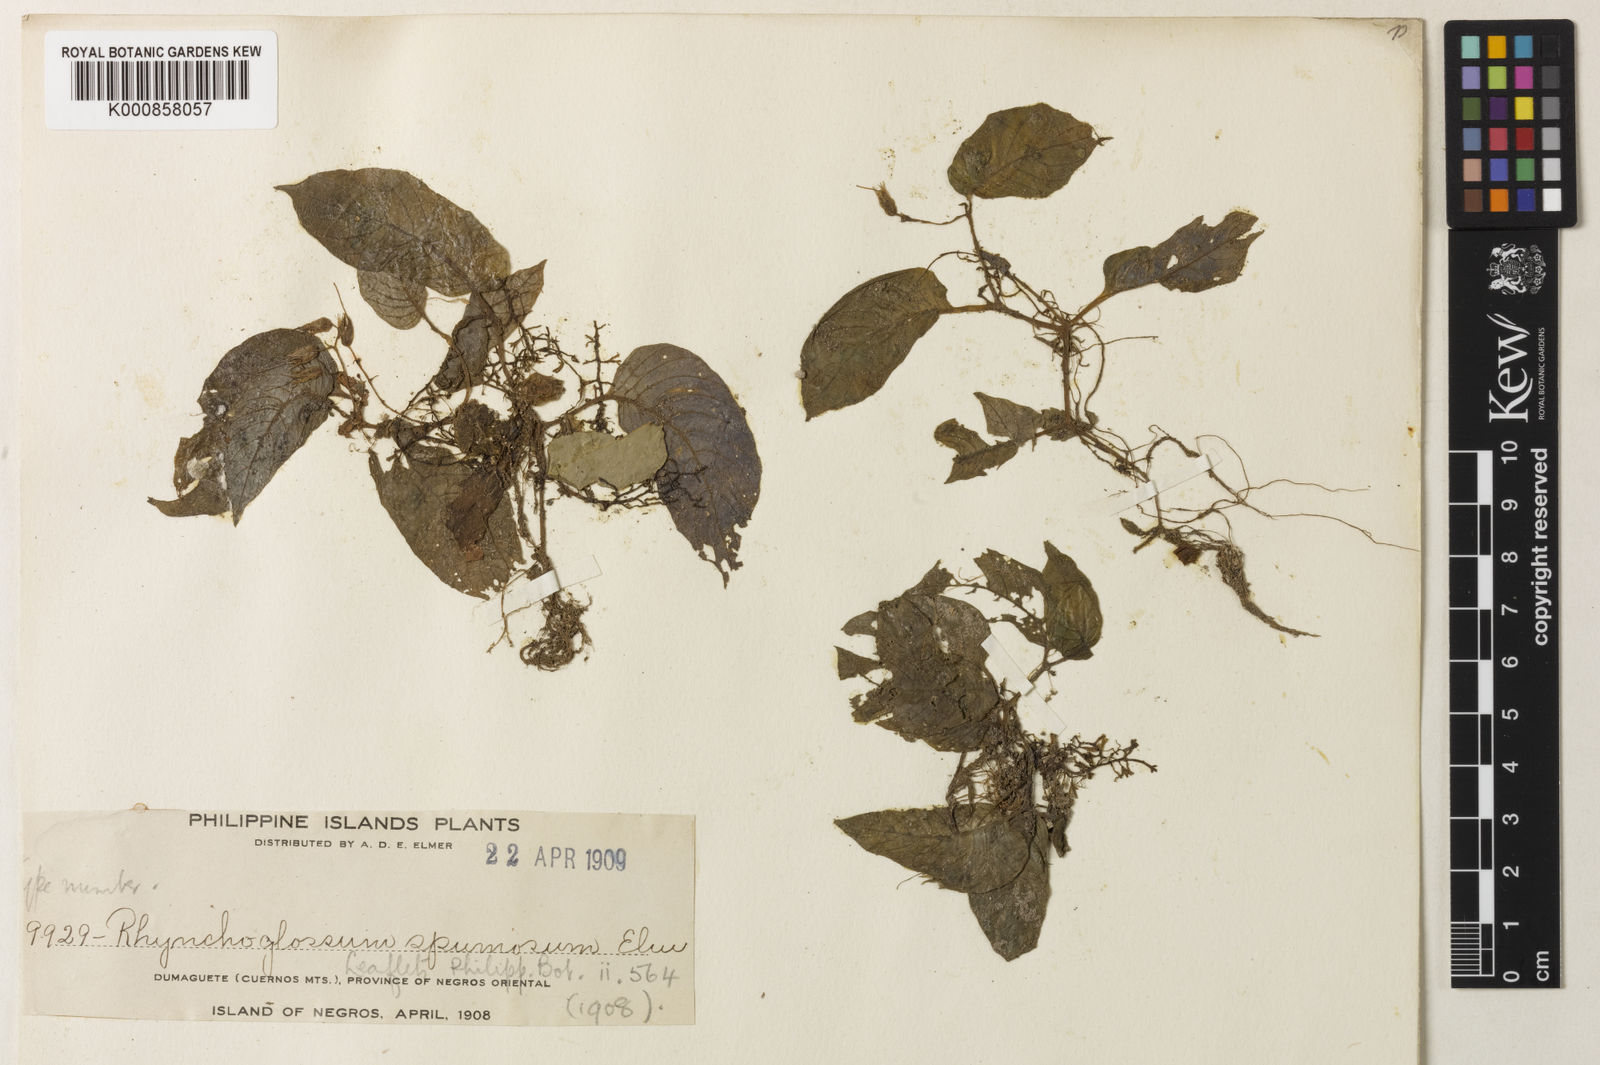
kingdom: Plantae
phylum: Tracheophyta
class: Magnoliopsida
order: Lamiales
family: Gesneriaceae
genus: Rhynchoglossum
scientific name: Rhynchoglossum spumosum
